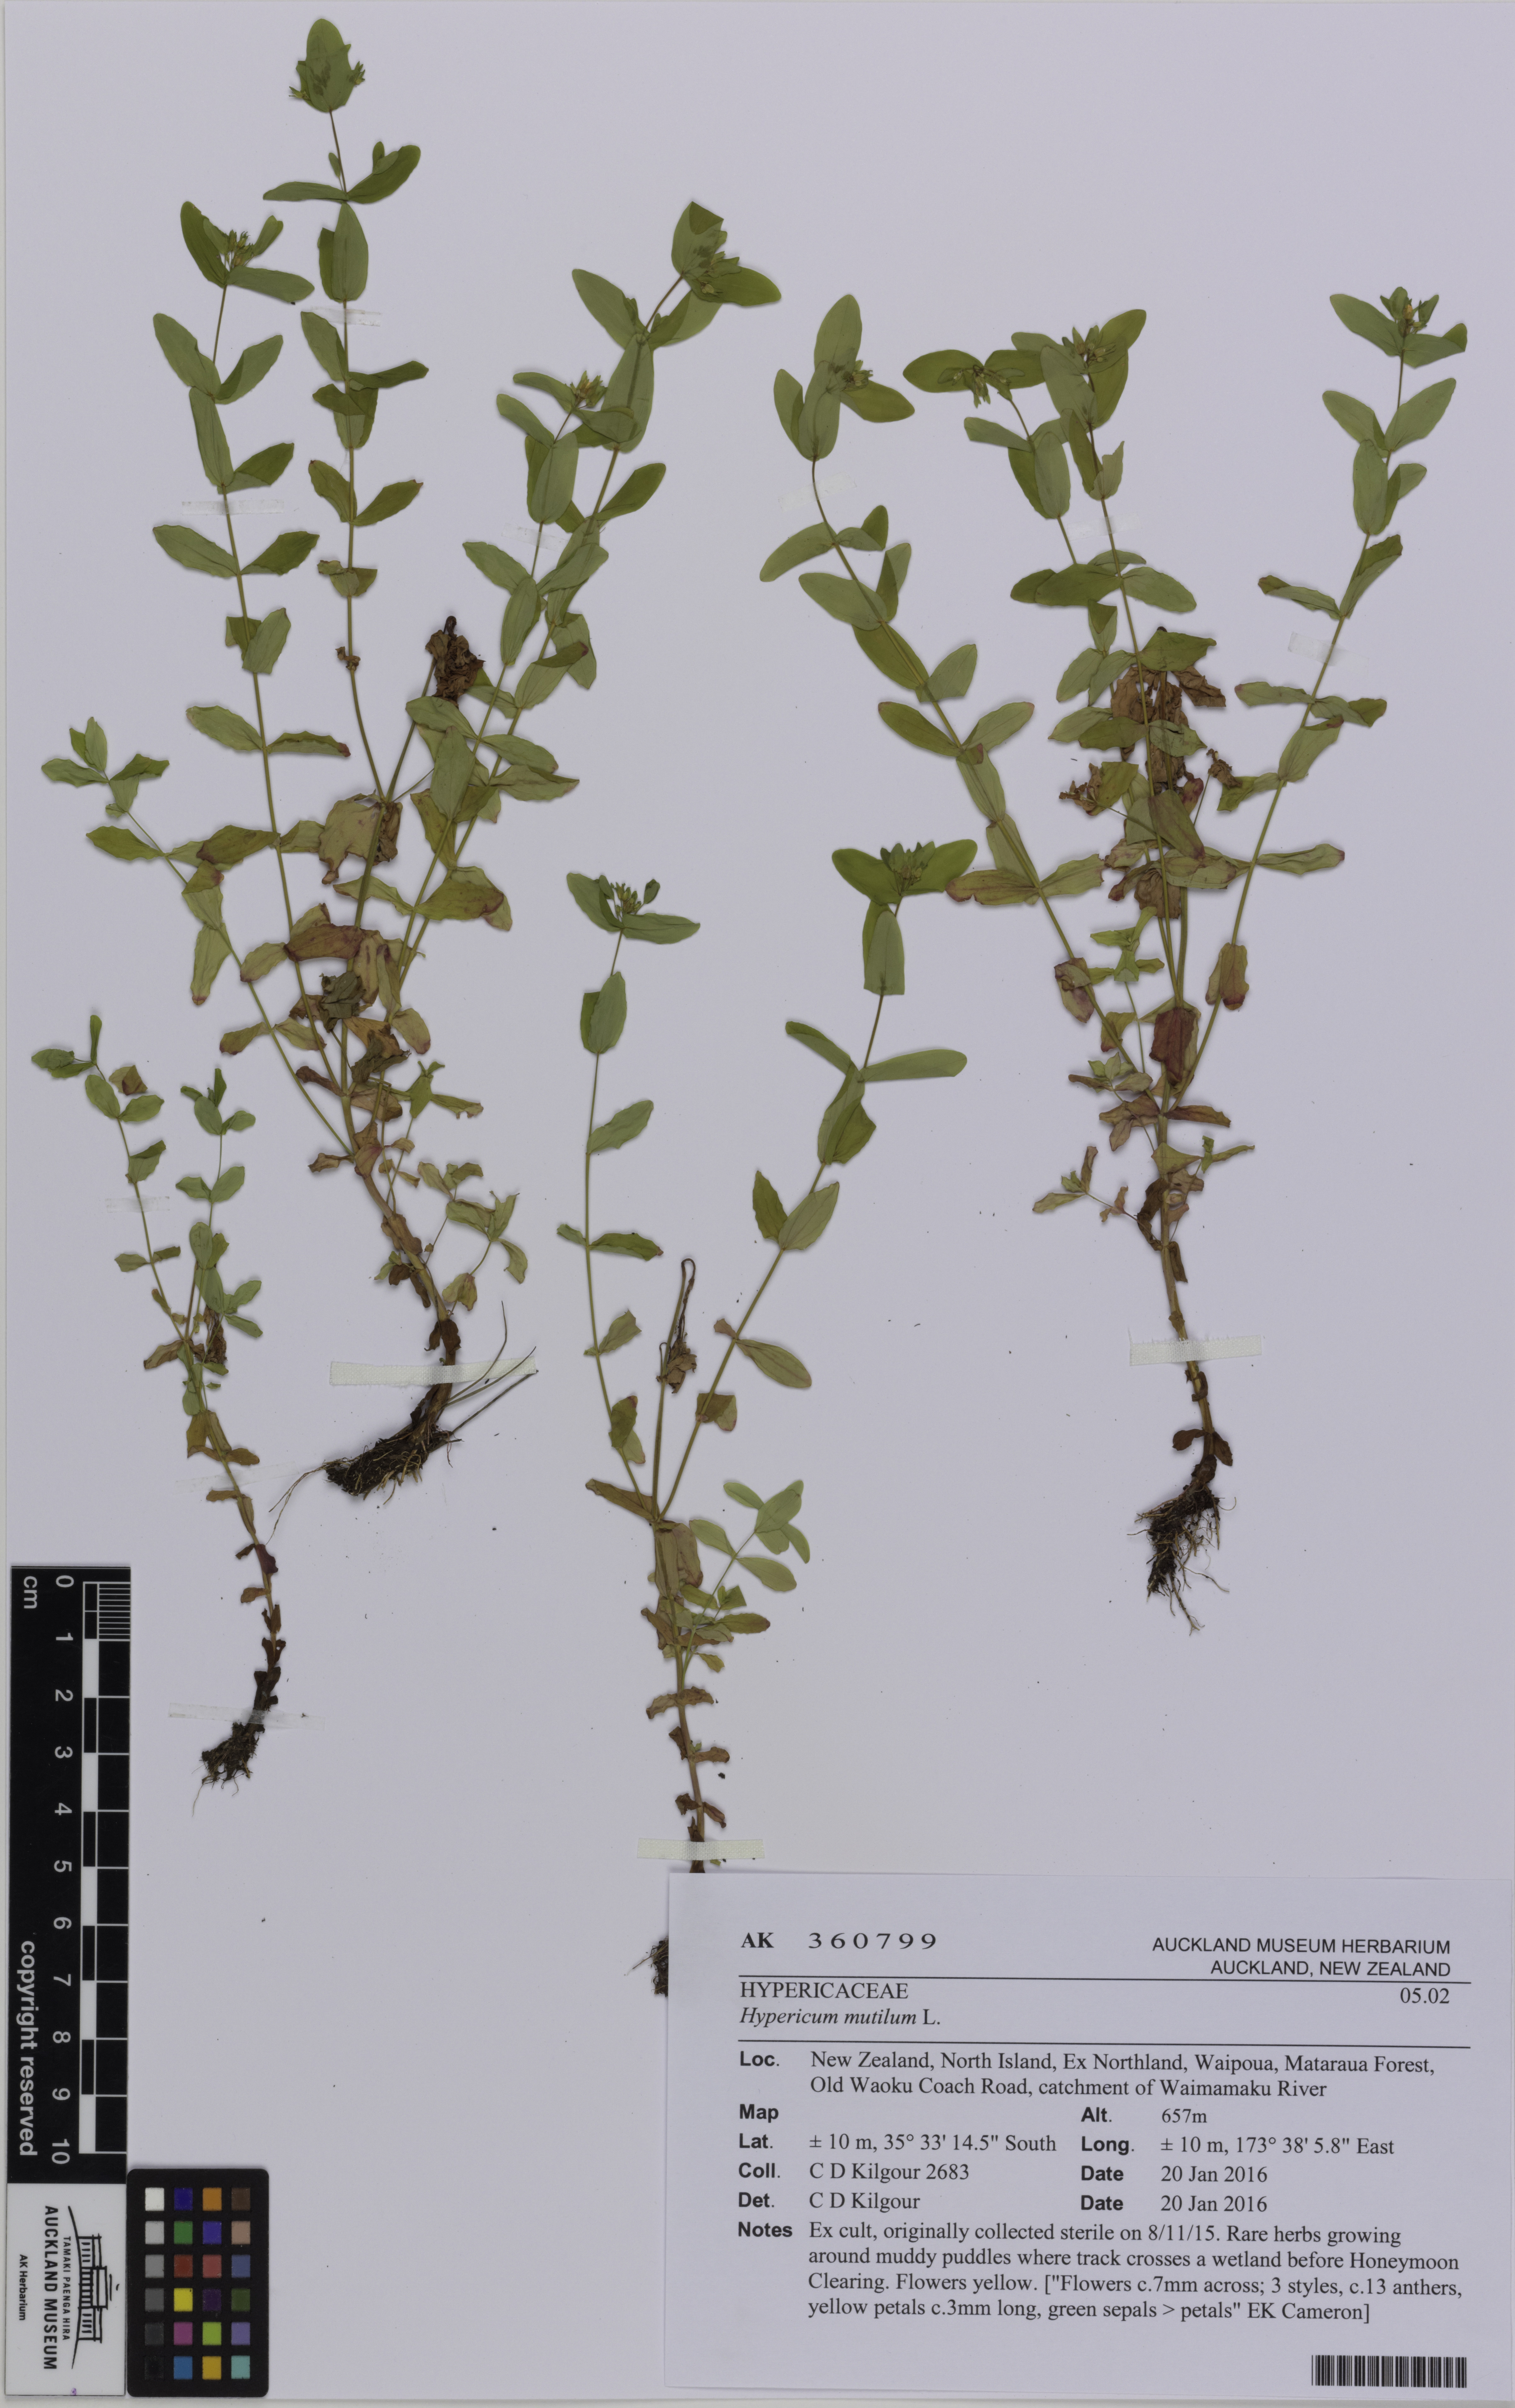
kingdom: Plantae
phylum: Tracheophyta
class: Magnoliopsida
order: Malpighiales
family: Hypericaceae
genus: Hypericum
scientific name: Hypericum mutilum
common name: Dwarf st. john's-wort
